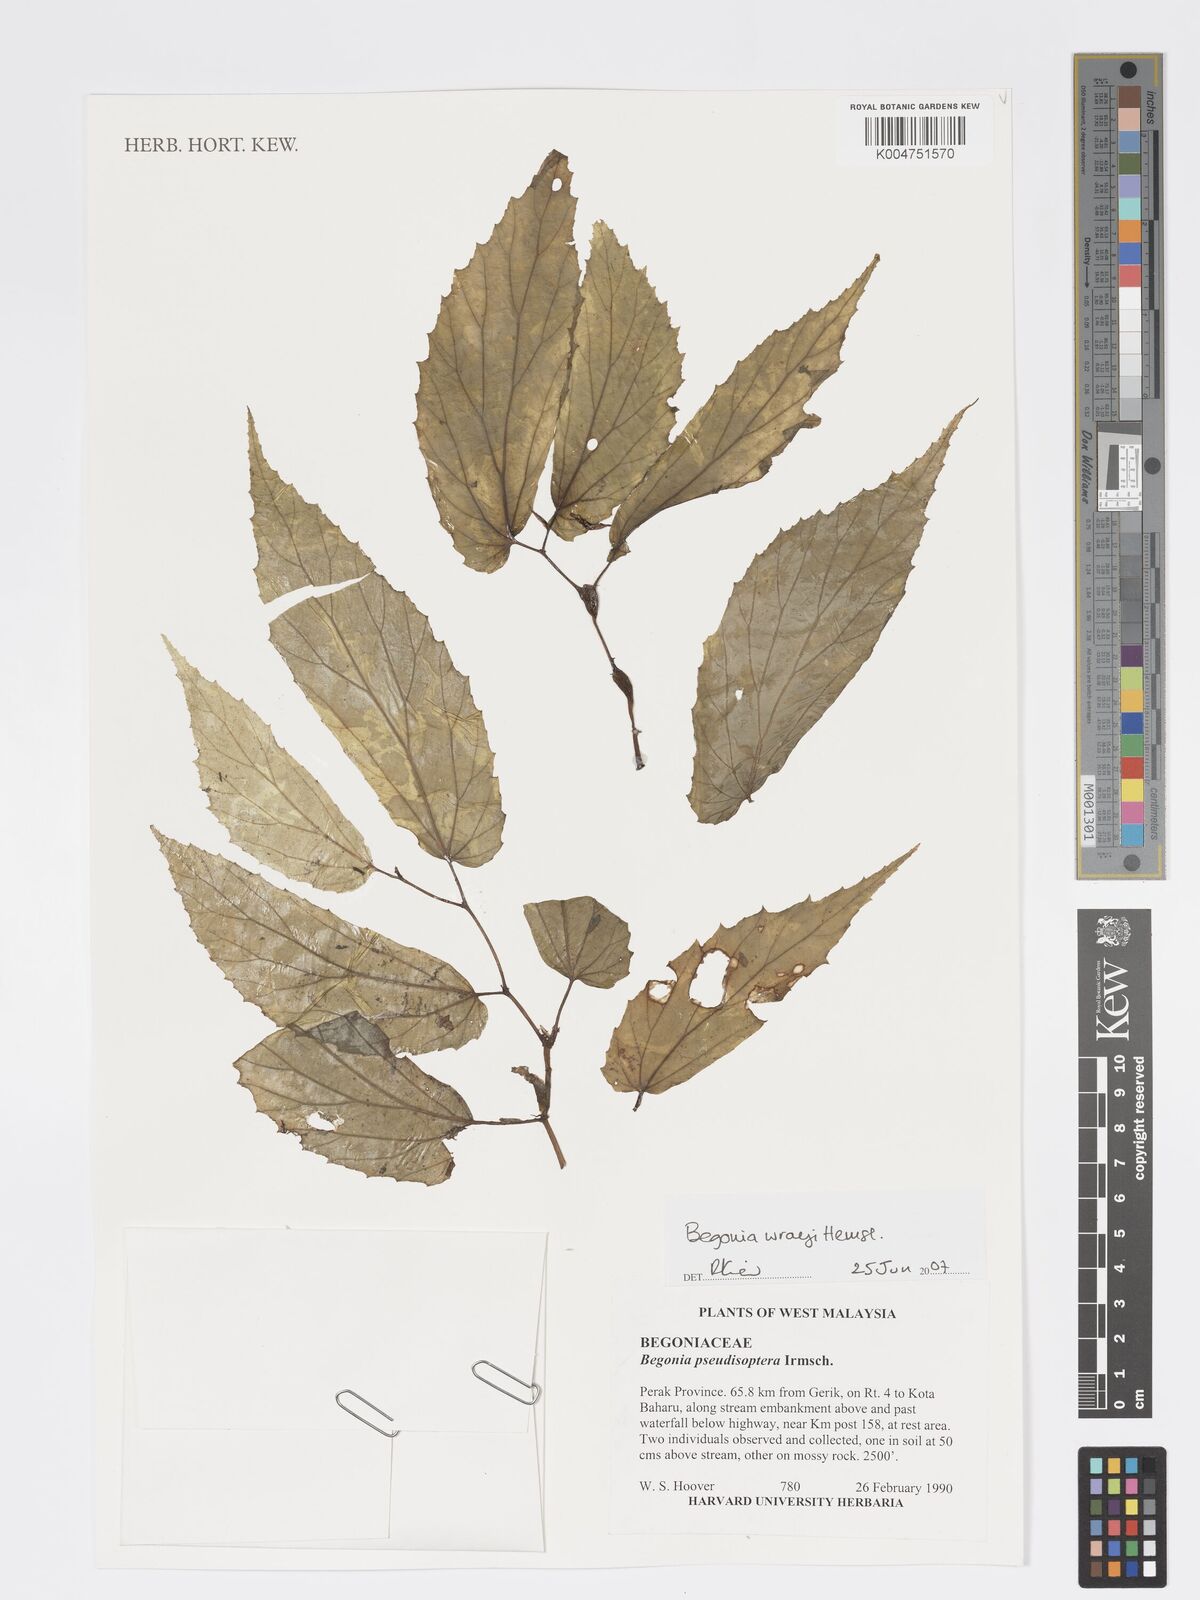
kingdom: Plantae
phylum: Tracheophyta
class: Magnoliopsida
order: Cucurbitales
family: Begoniaceae
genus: Begonia
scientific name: Begonia wrayi
